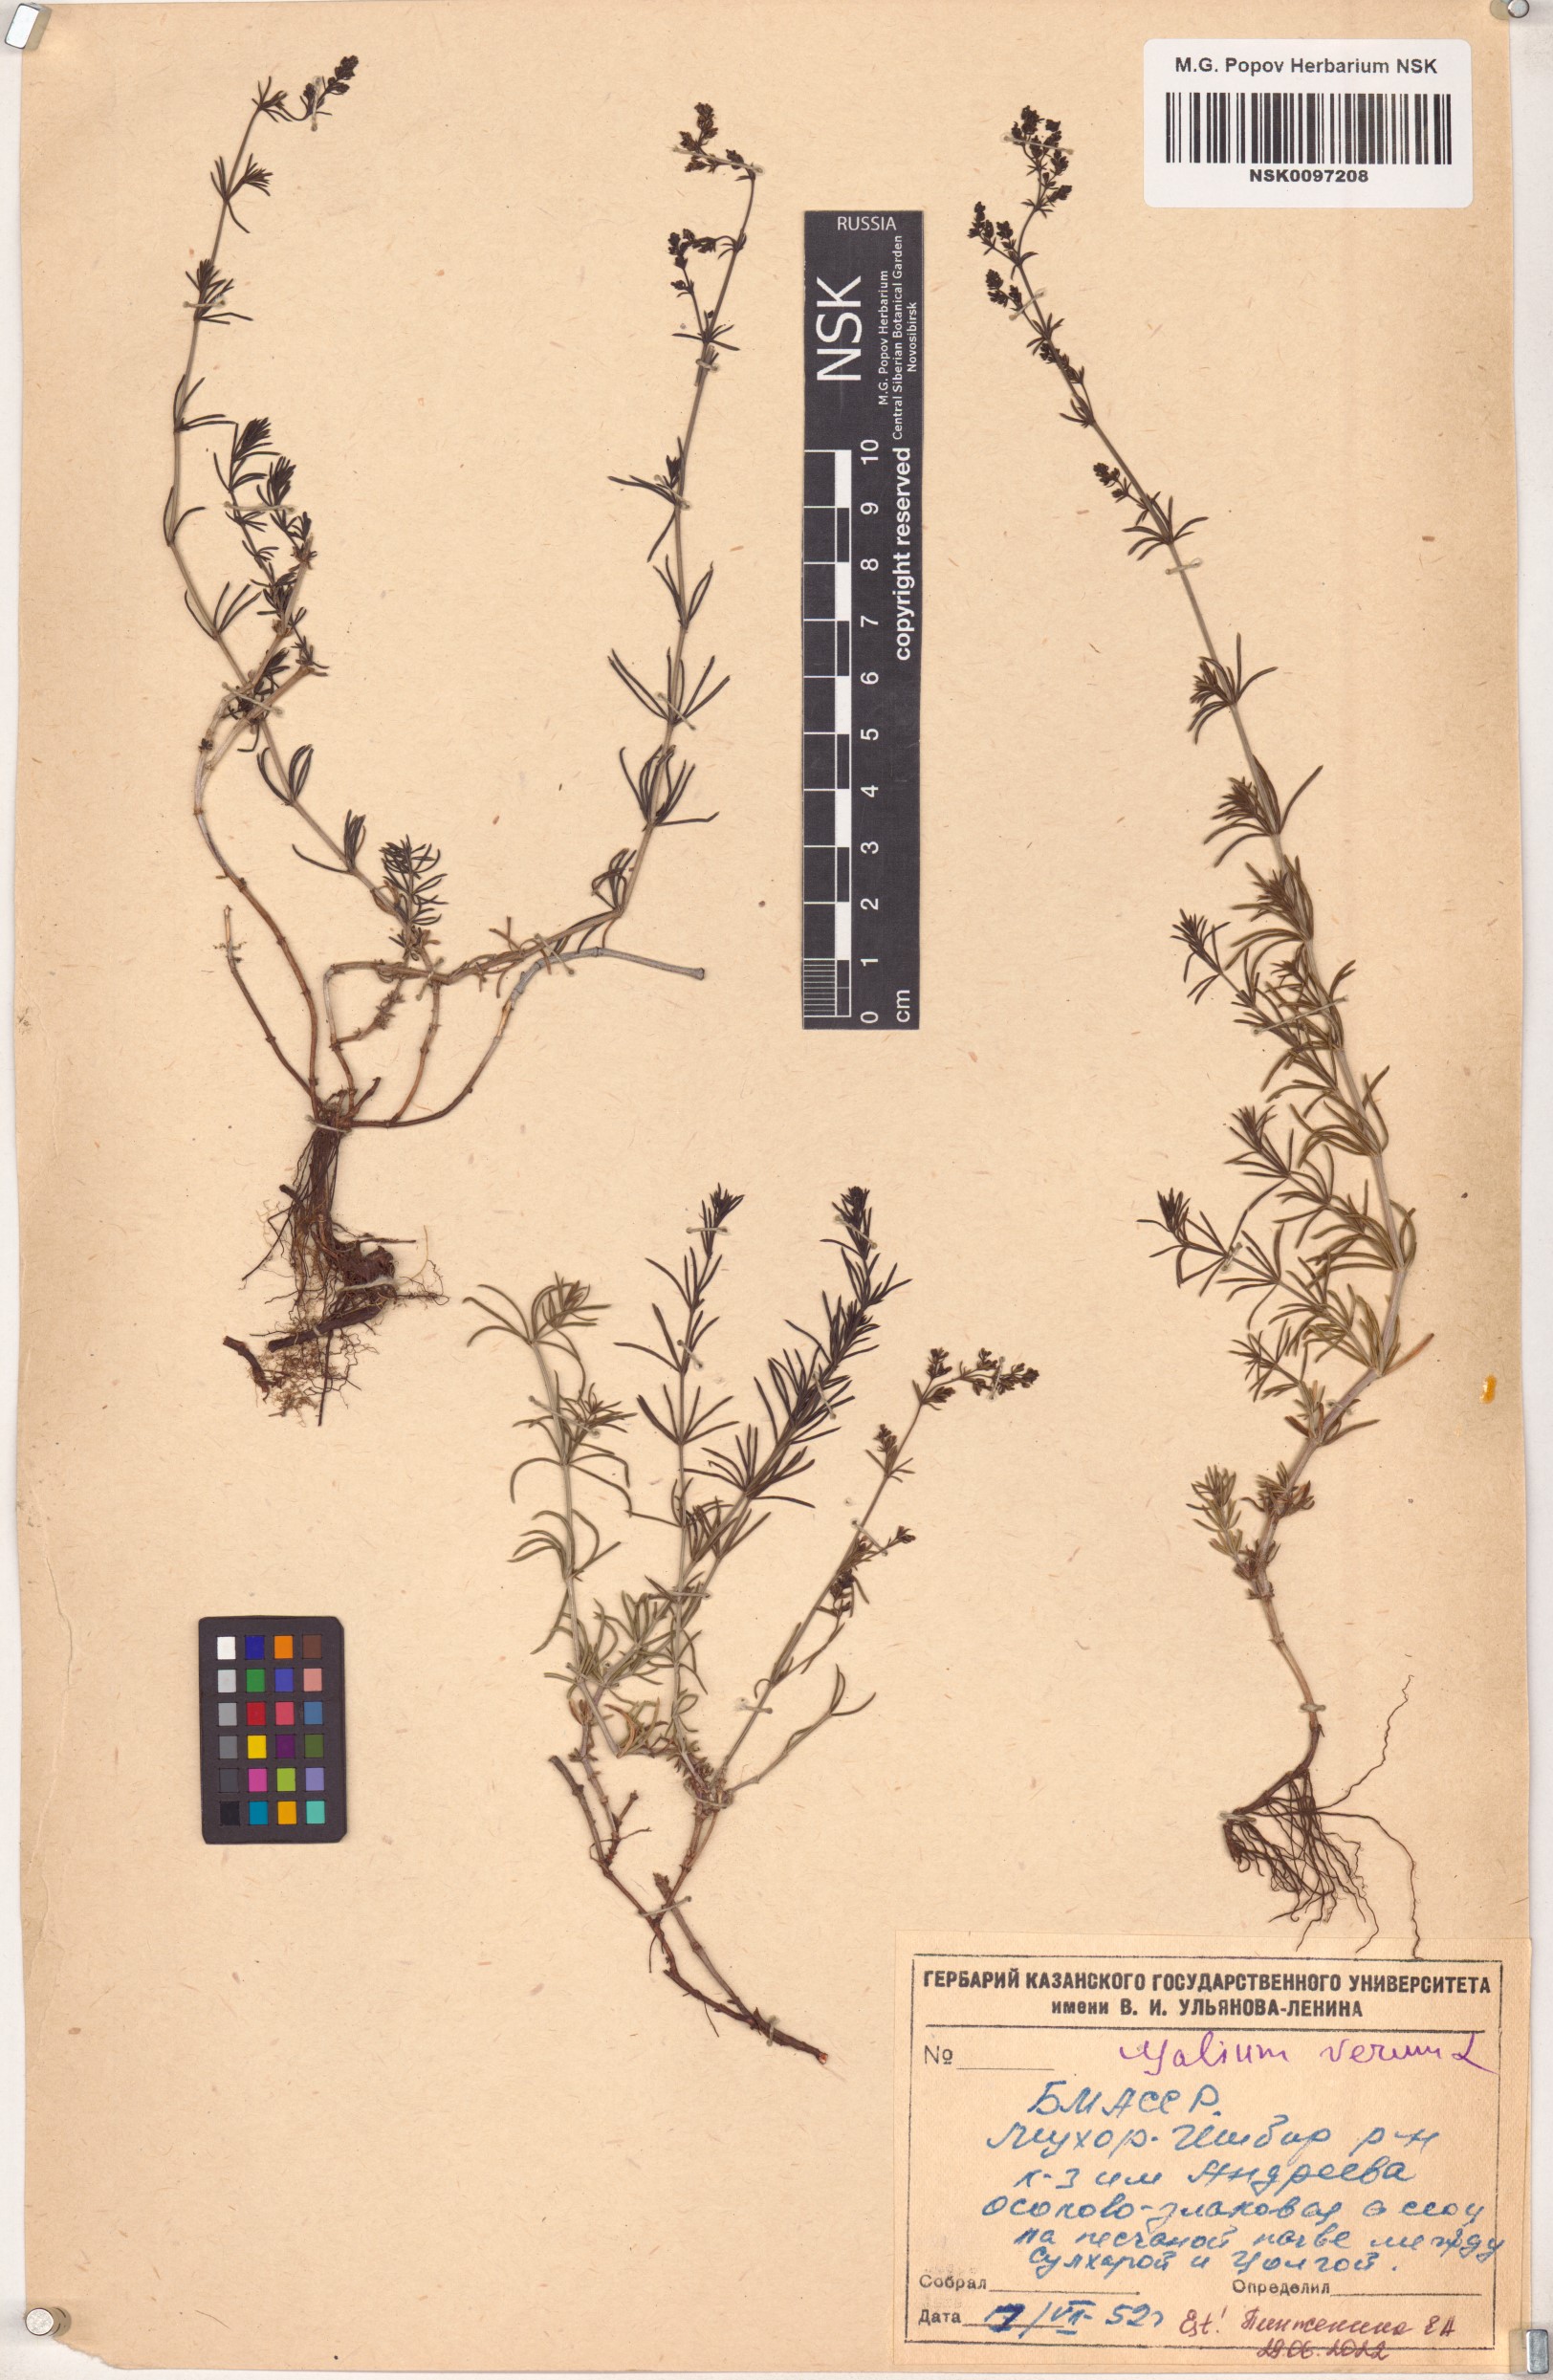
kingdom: Plantae
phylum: Tracheophyta
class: Magnoliopsida
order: Gentianales
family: Rubiaceae
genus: Galium
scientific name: Galium verum
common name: Lady's bedstraw
